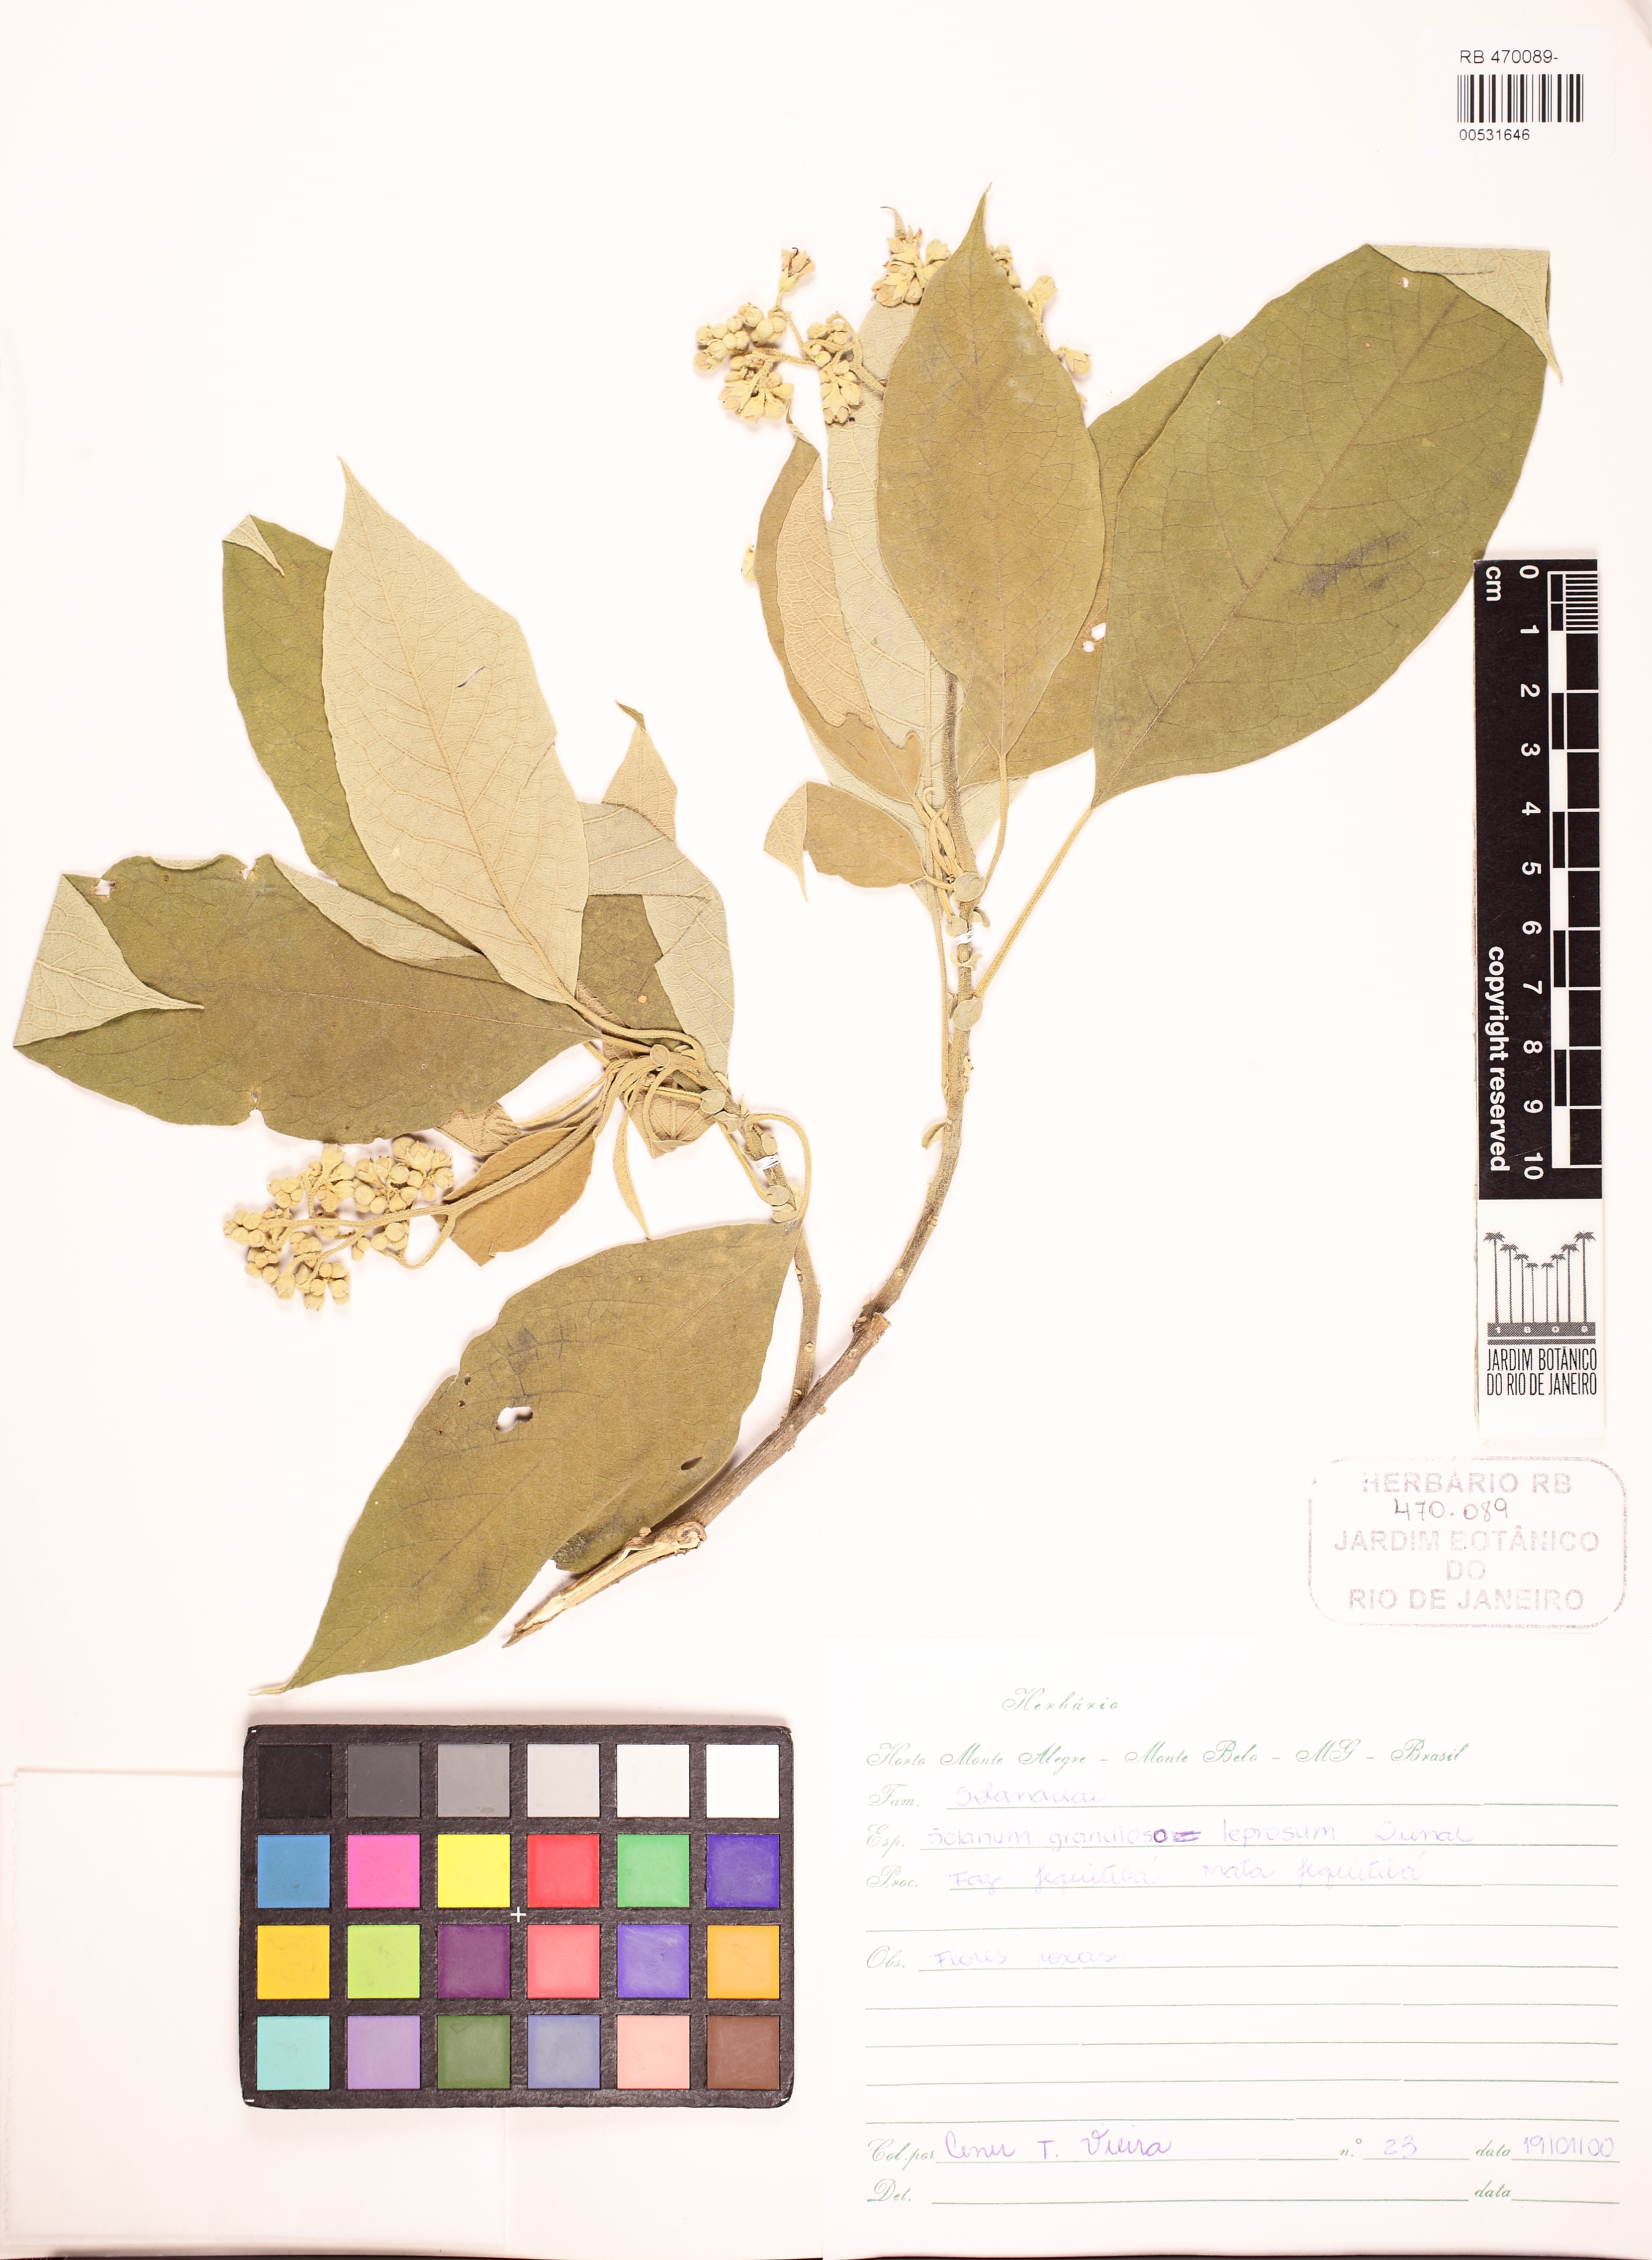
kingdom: Plantae
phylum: Tracheophyta
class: Magnoliopsida
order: Solanales
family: Solanaceae
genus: Solanum
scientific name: Solanum granulosoleprosum
